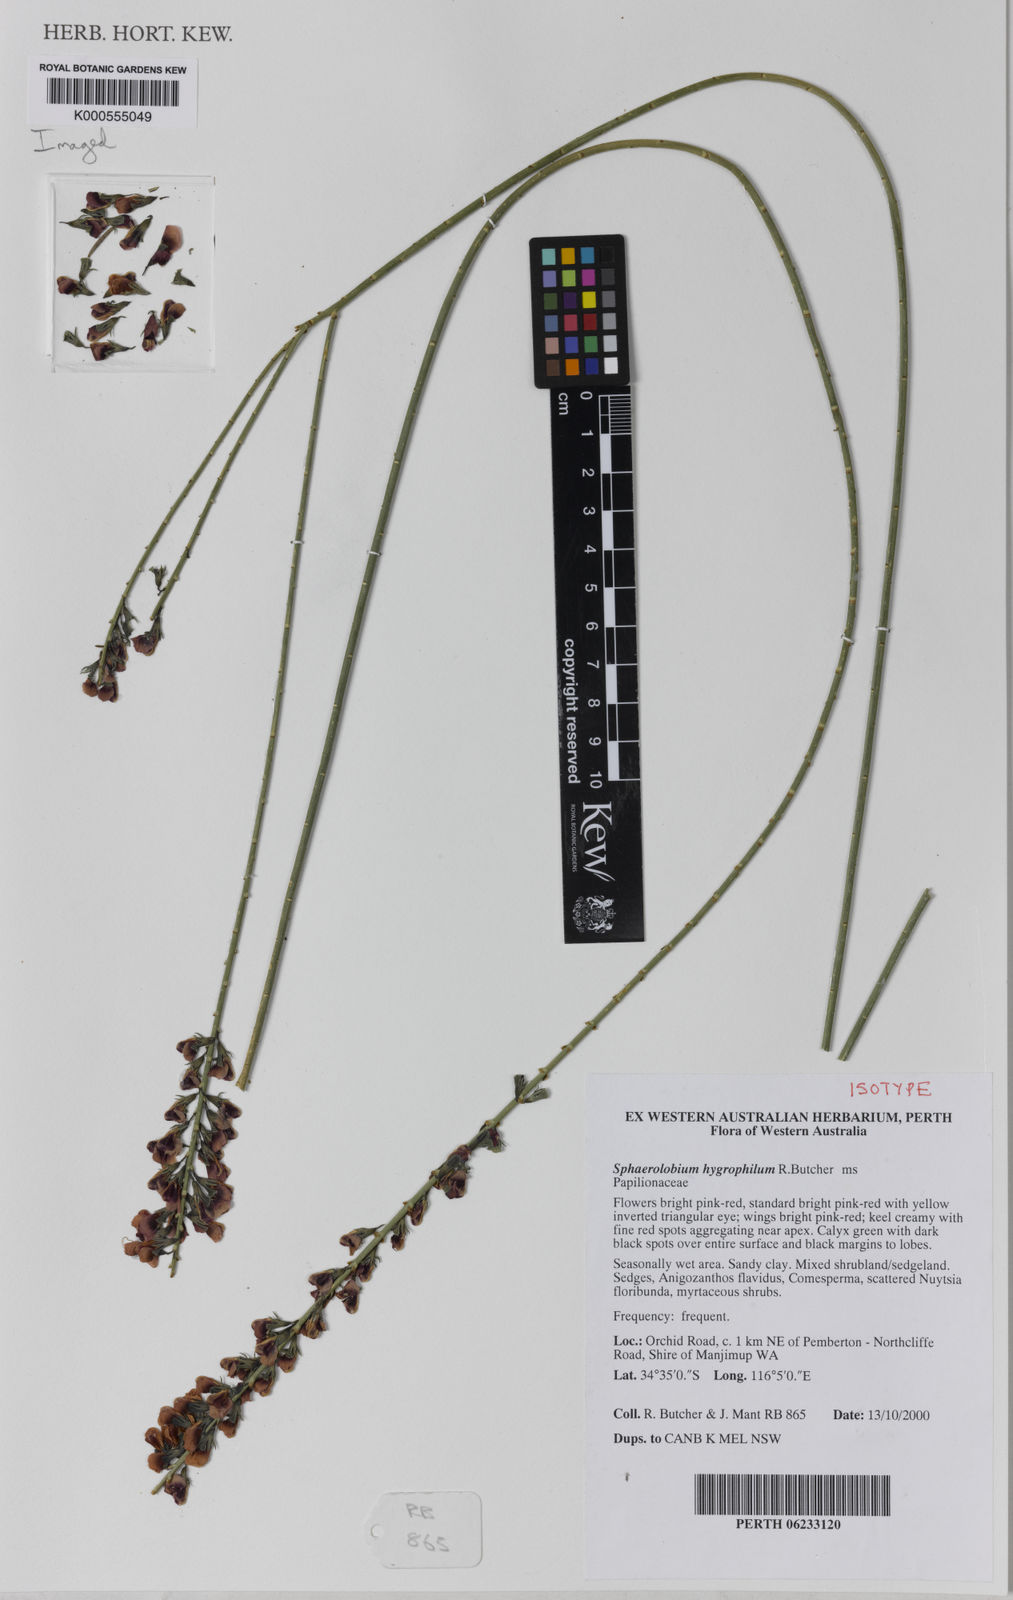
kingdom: Plantae
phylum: Tracheophyta
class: Magnoliopsida
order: Fabales
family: Fabaceae
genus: Sphaerolobium
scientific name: Sphaerolobium hygrophilum
